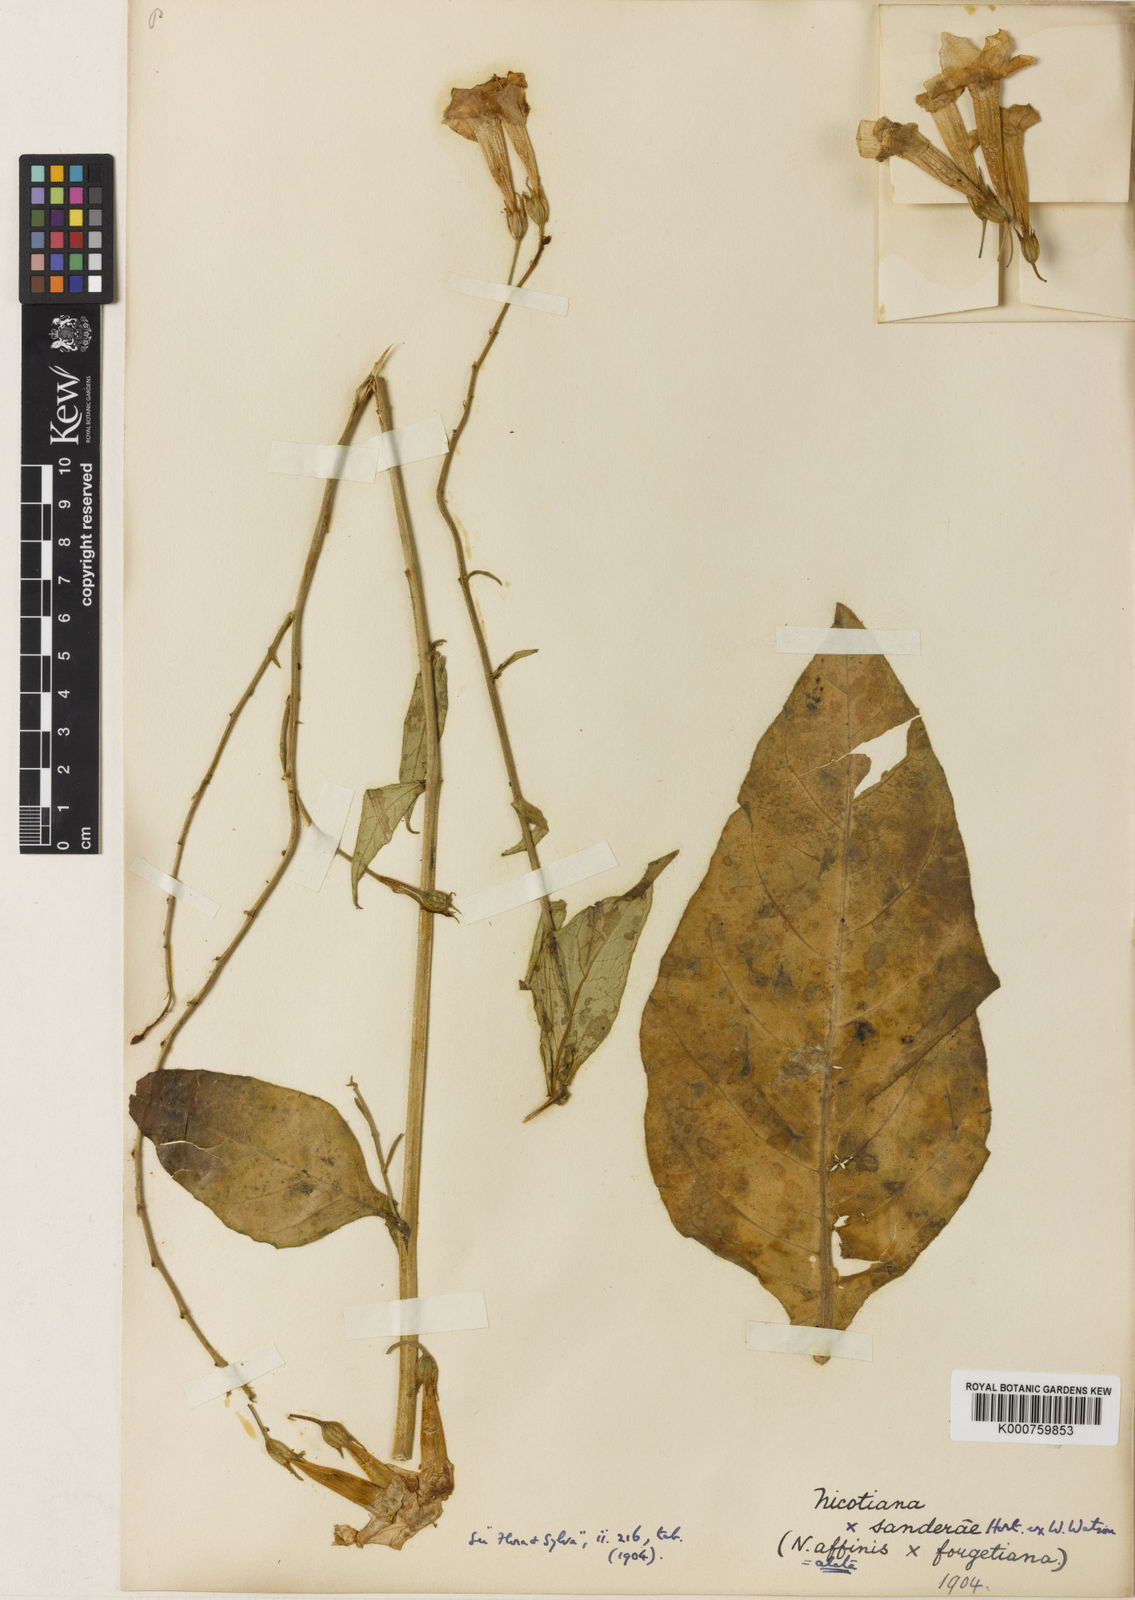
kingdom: Plantae
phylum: Tracheophyta
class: Magnoliopsida
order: Solanales
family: Solanaceae
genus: Nicotiana
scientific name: Nicotiana
